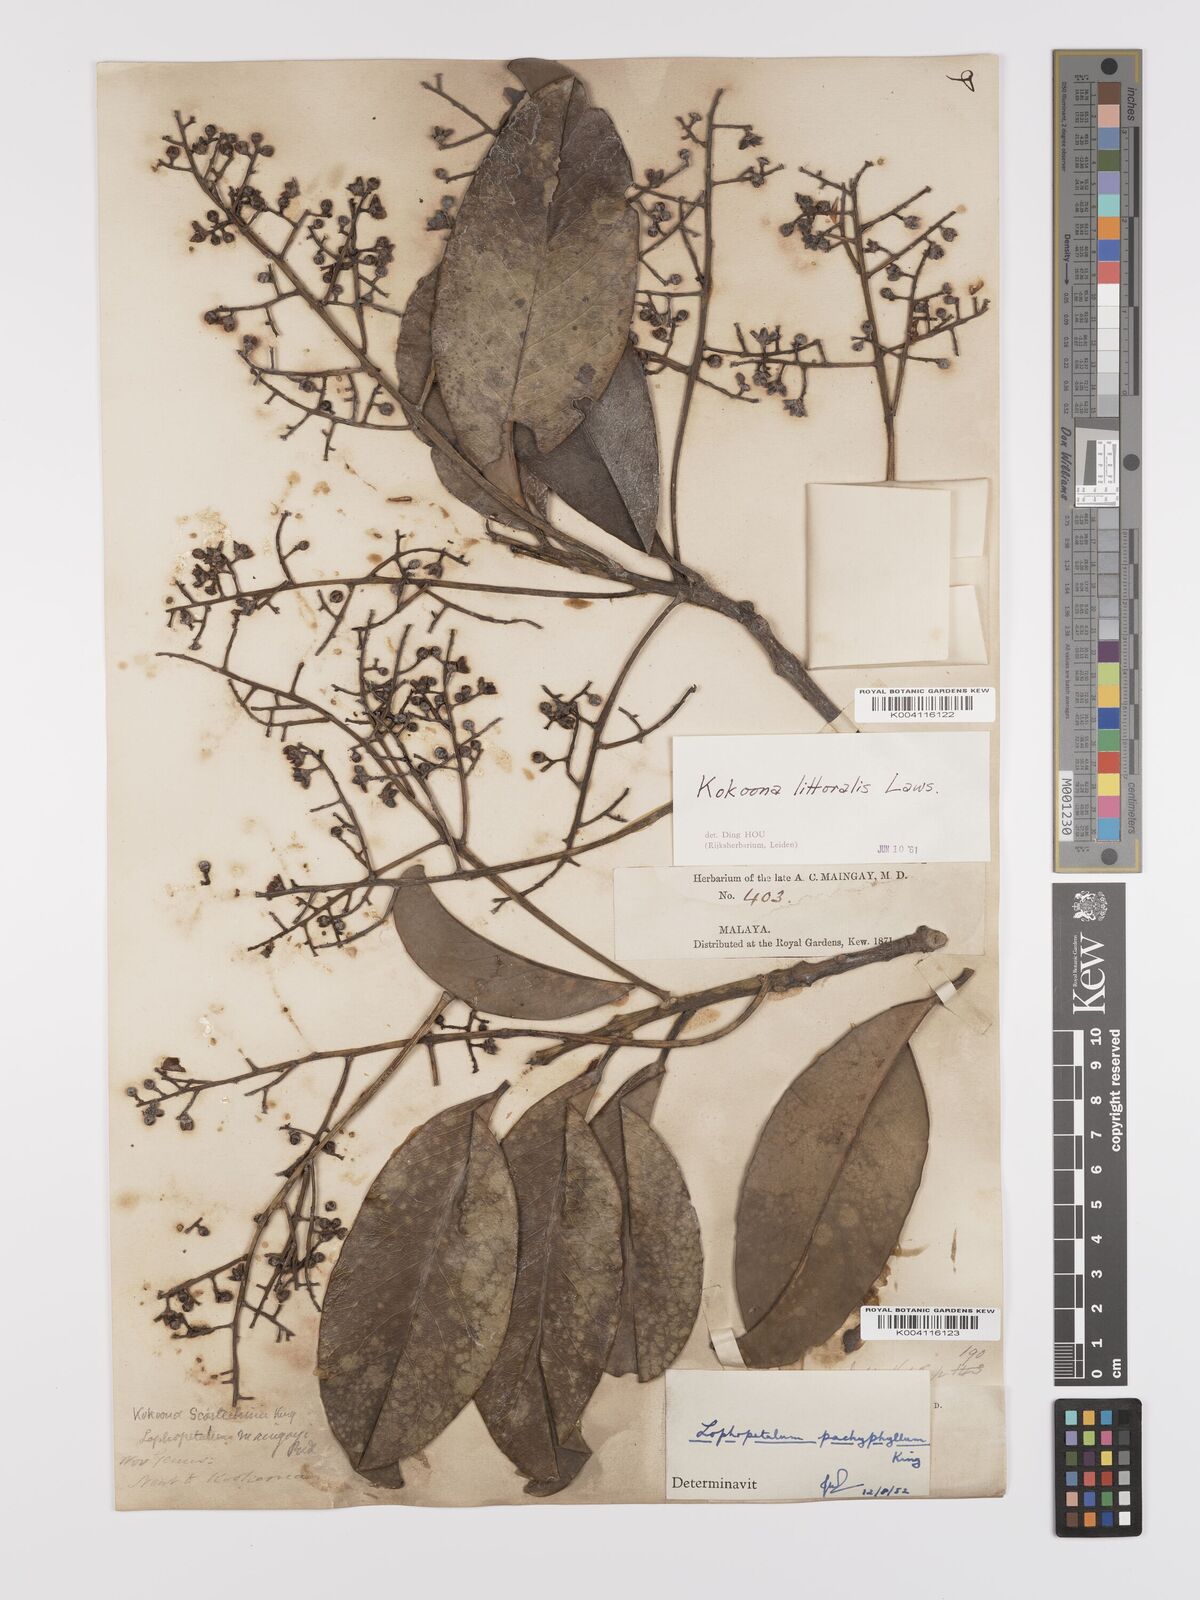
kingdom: Plantae
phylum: Tracheophyta
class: Magnoliopsida
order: Celastrales
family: Celastraceae
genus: Kokoona
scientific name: Kokoona littoralis
